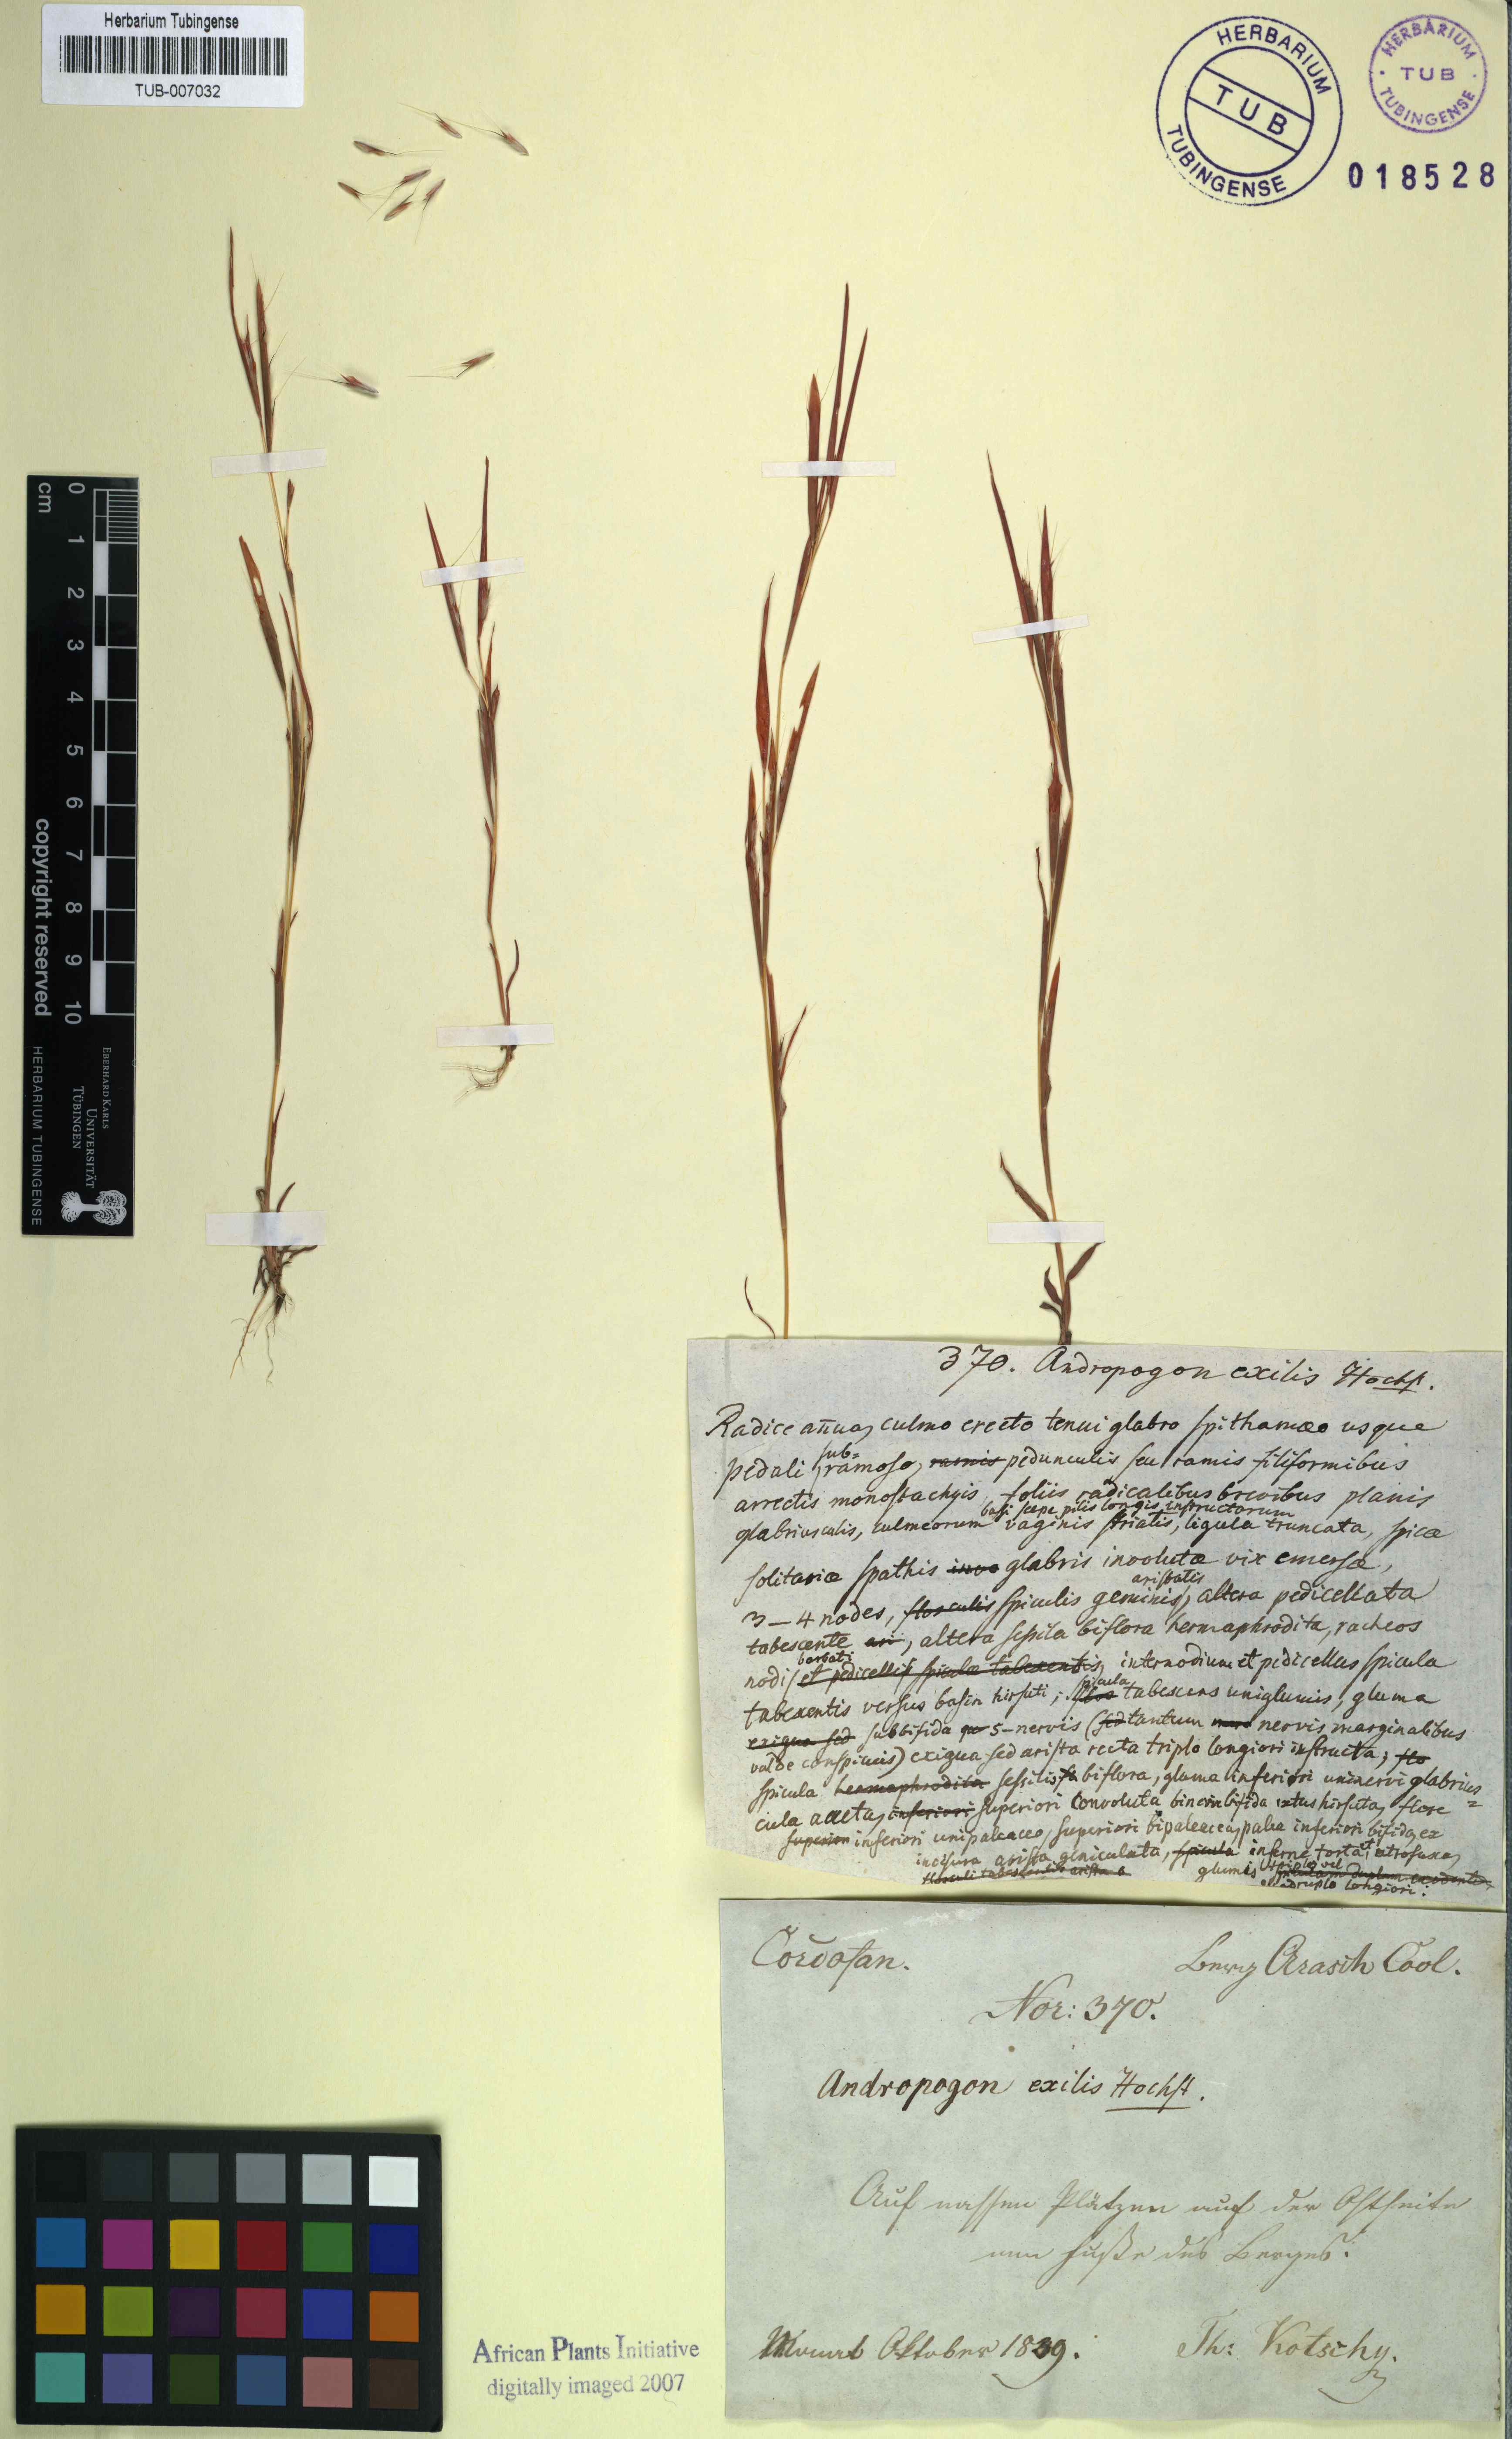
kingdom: Plantae
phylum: Tracheophyta
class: Liliopsida
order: Poales
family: Poaceae
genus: Schizachyrium
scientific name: Schizachyrium exile
